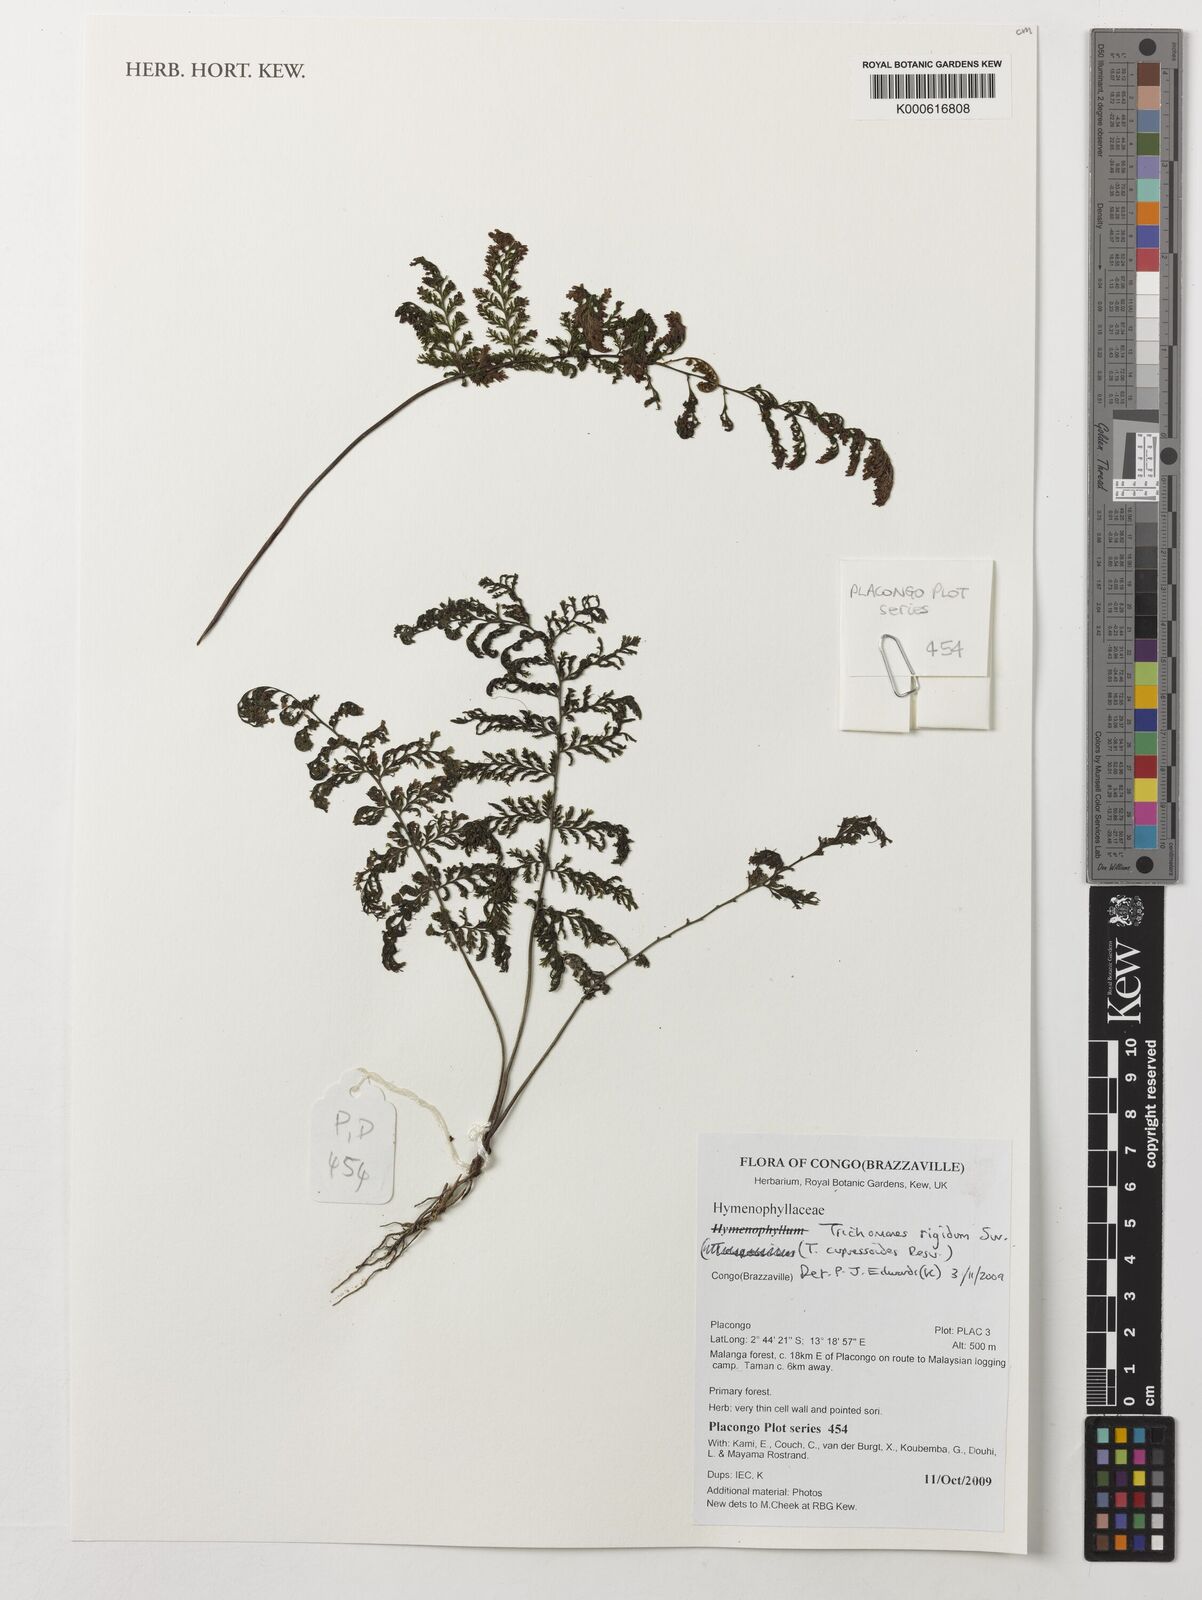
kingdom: Plantae
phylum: Tracheophyta
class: Polypodiopsida
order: Hymenophyllales
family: Hymenophyllaceae
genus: Abrodictyum
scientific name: Abrodictyum rigidum
